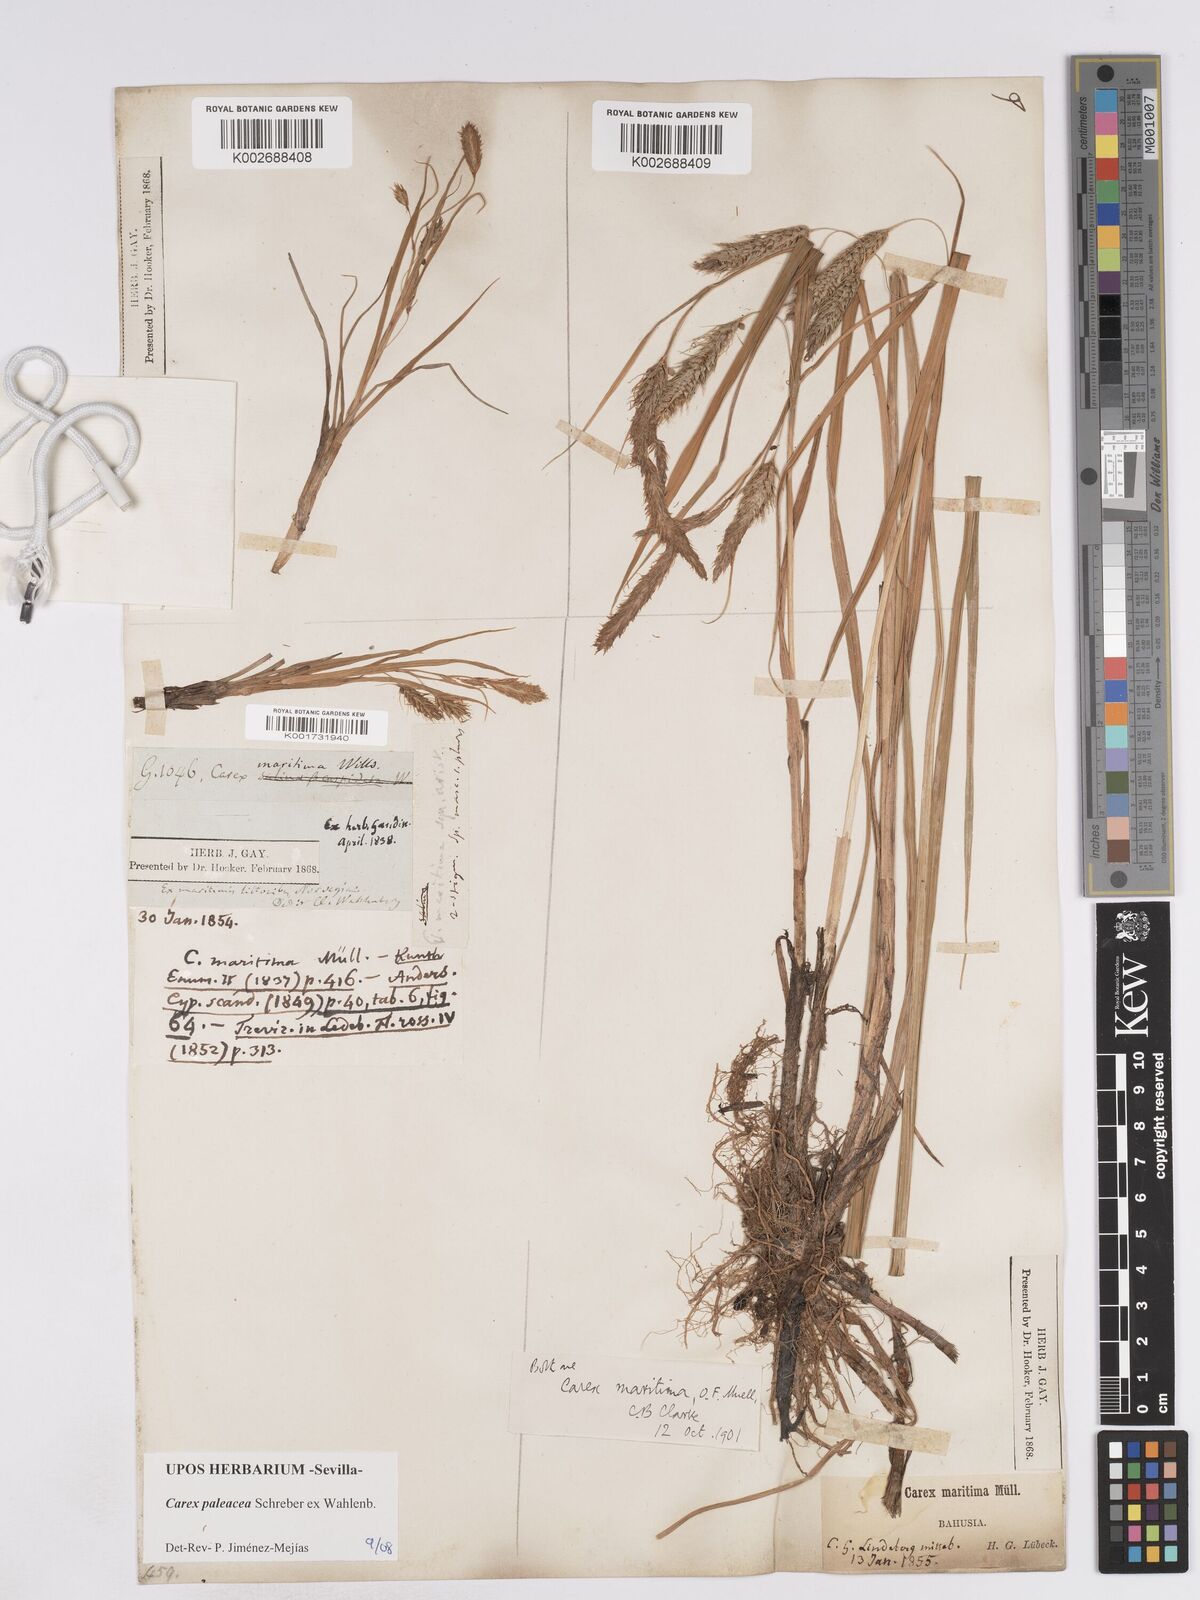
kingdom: Plantae
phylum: Tracheophyta
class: Liliopsida
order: Poales
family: Cyperaceae
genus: Carex
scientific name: Carex paleacea
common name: Chaffy sedge
